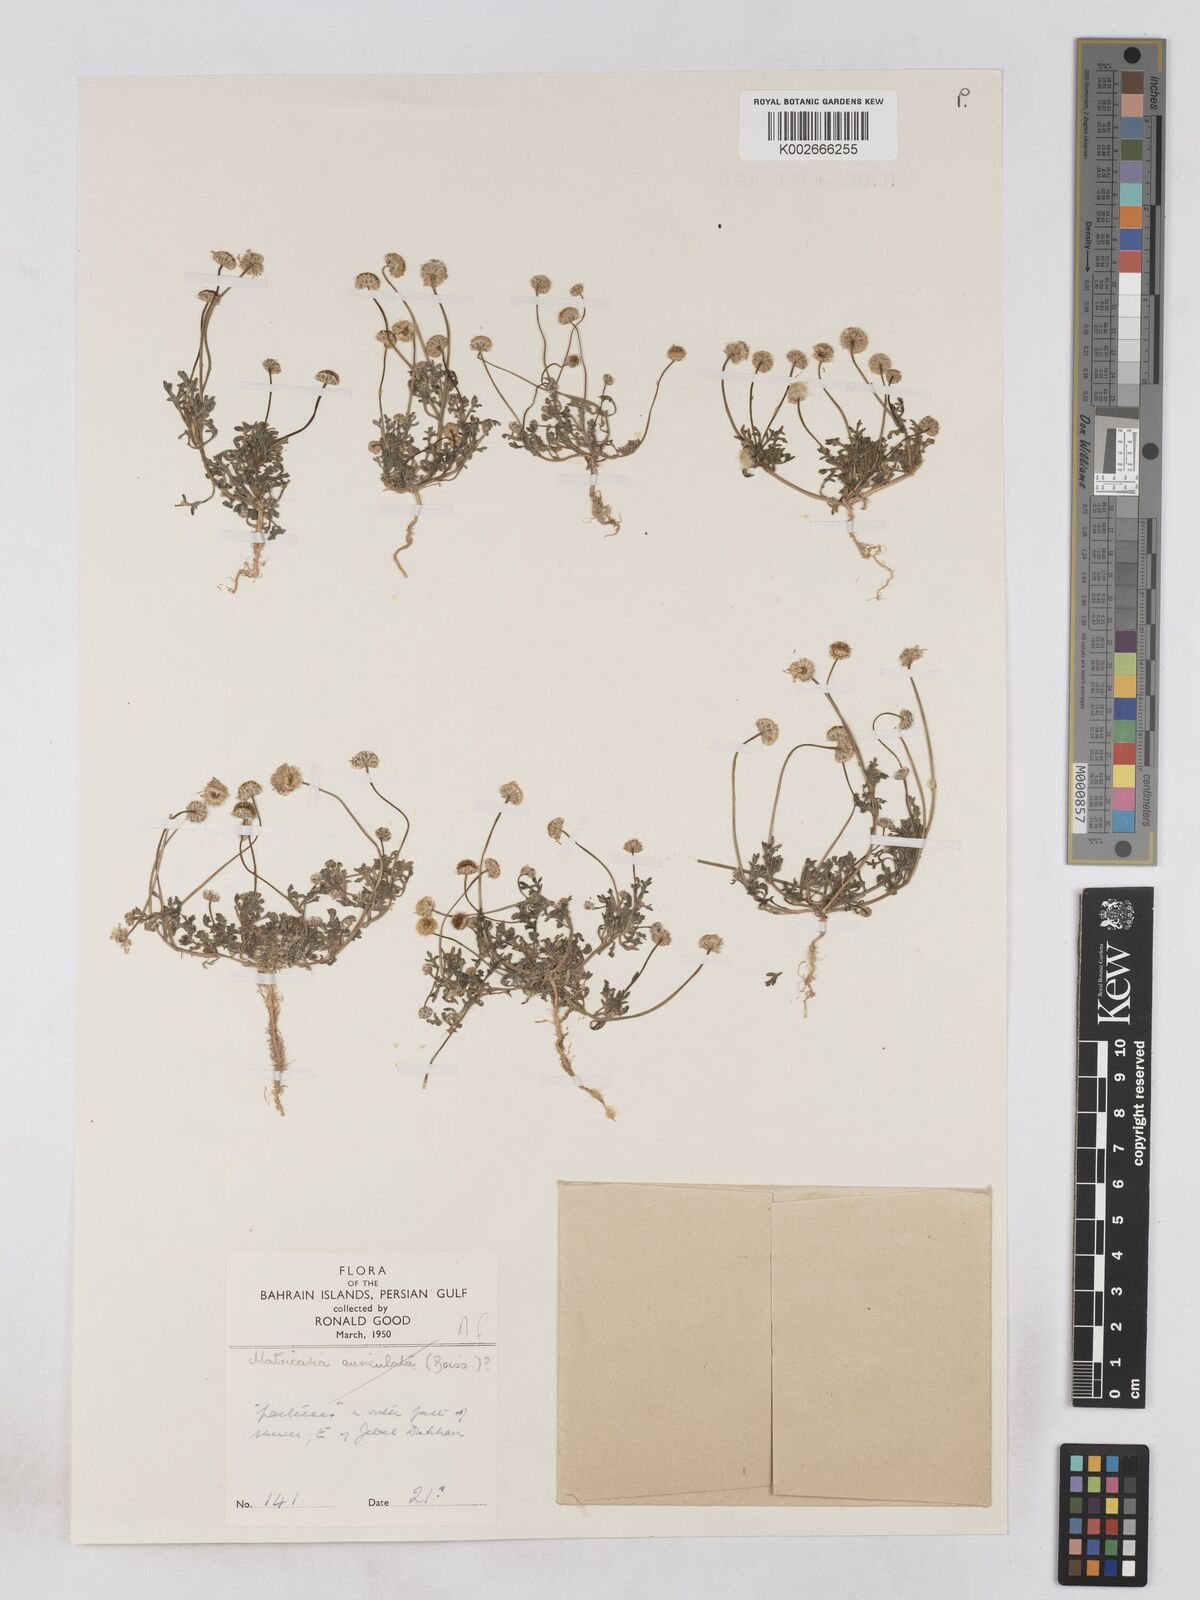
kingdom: Plantae
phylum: Tracheophyta
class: Magnoliopsida
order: Asterales
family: Asteraceae
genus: Otoglyphis
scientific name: Otoglyphis factorovskyi
